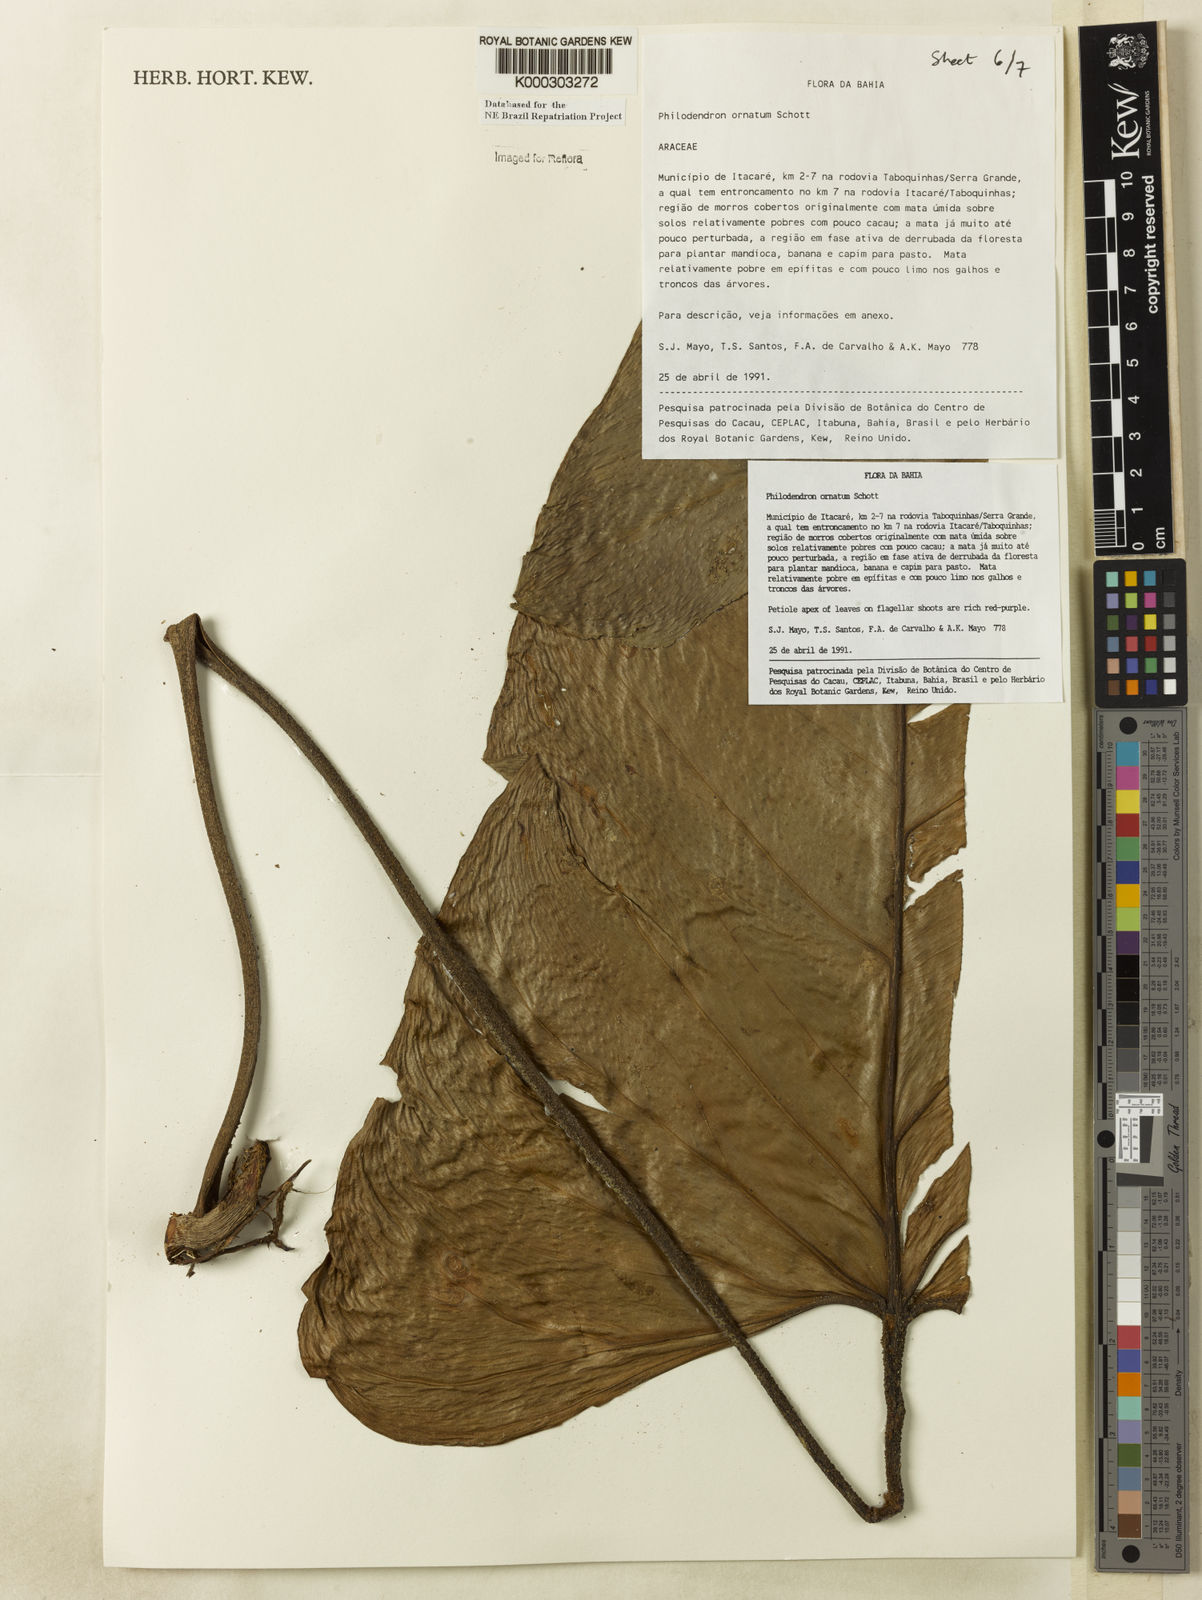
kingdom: Plantae
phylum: Tracheophyta
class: Liliopsida
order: Alismatales
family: Araceae
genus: Philodendron
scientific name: Philodendron ornatum
